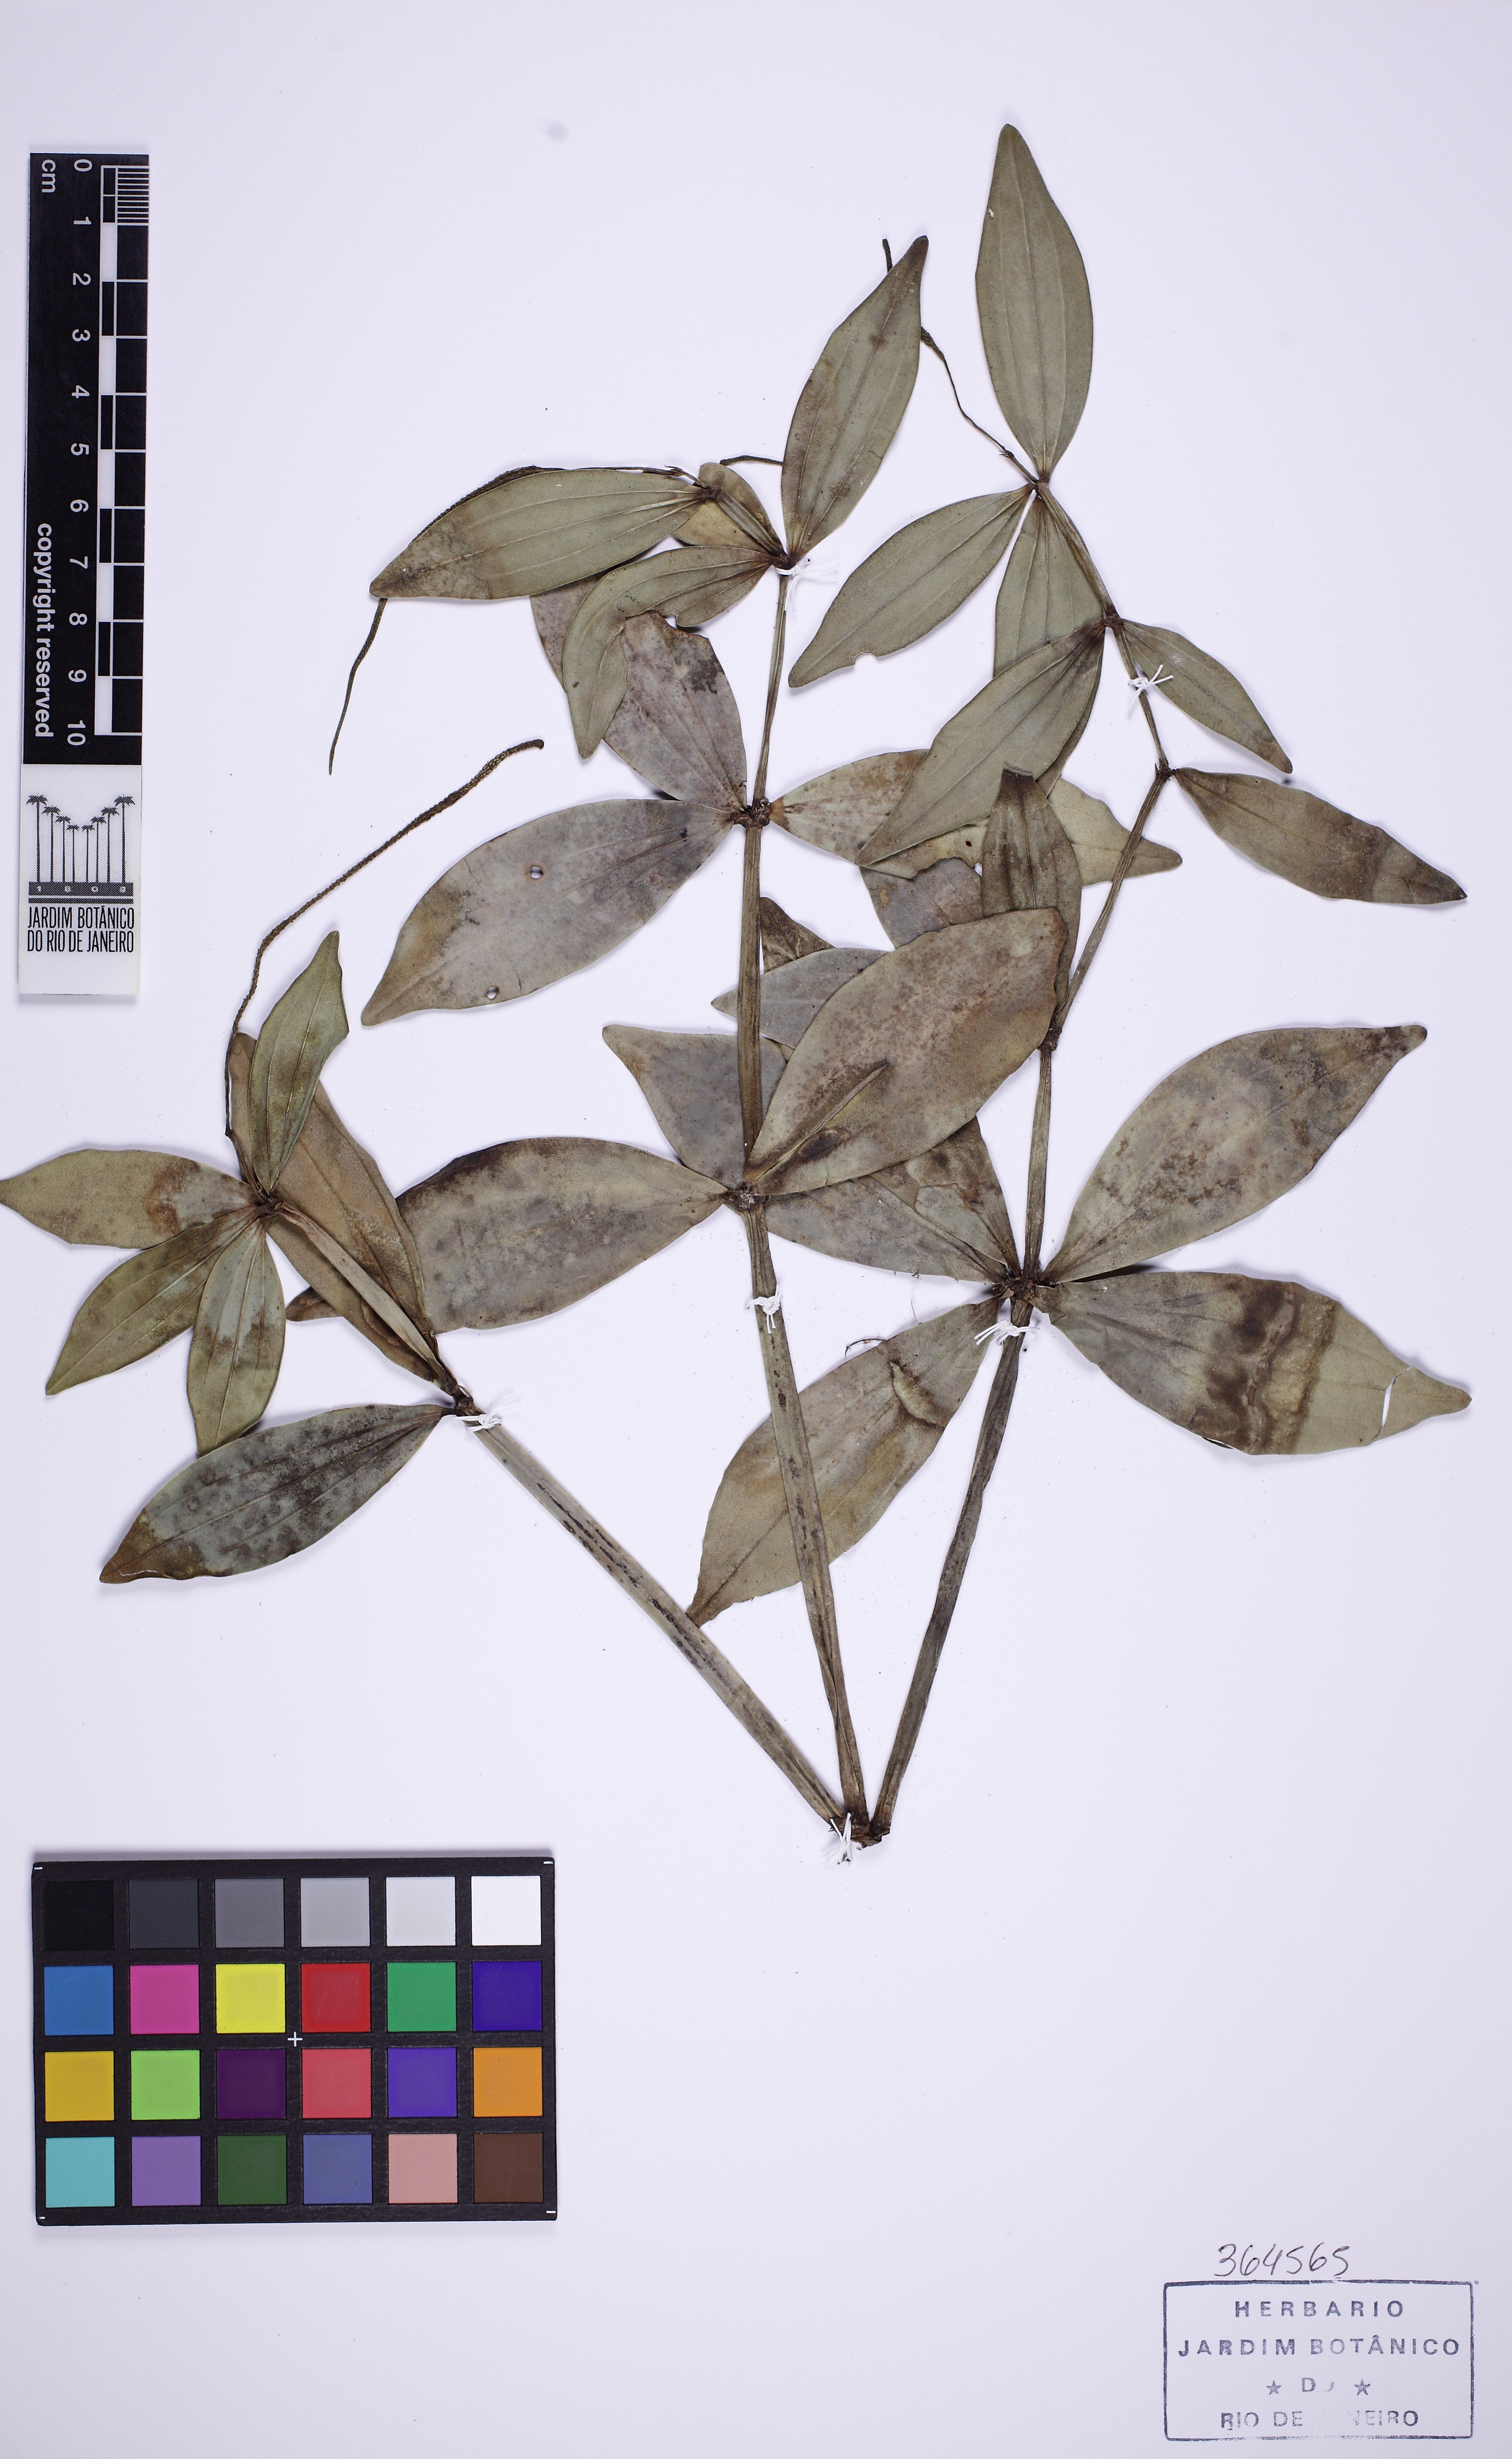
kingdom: Plantae
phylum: Tracheophyta
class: Magnoliopsida
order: Piperales
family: Piperaceae
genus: Peperomia
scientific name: Peperomia hirtellicaulis
